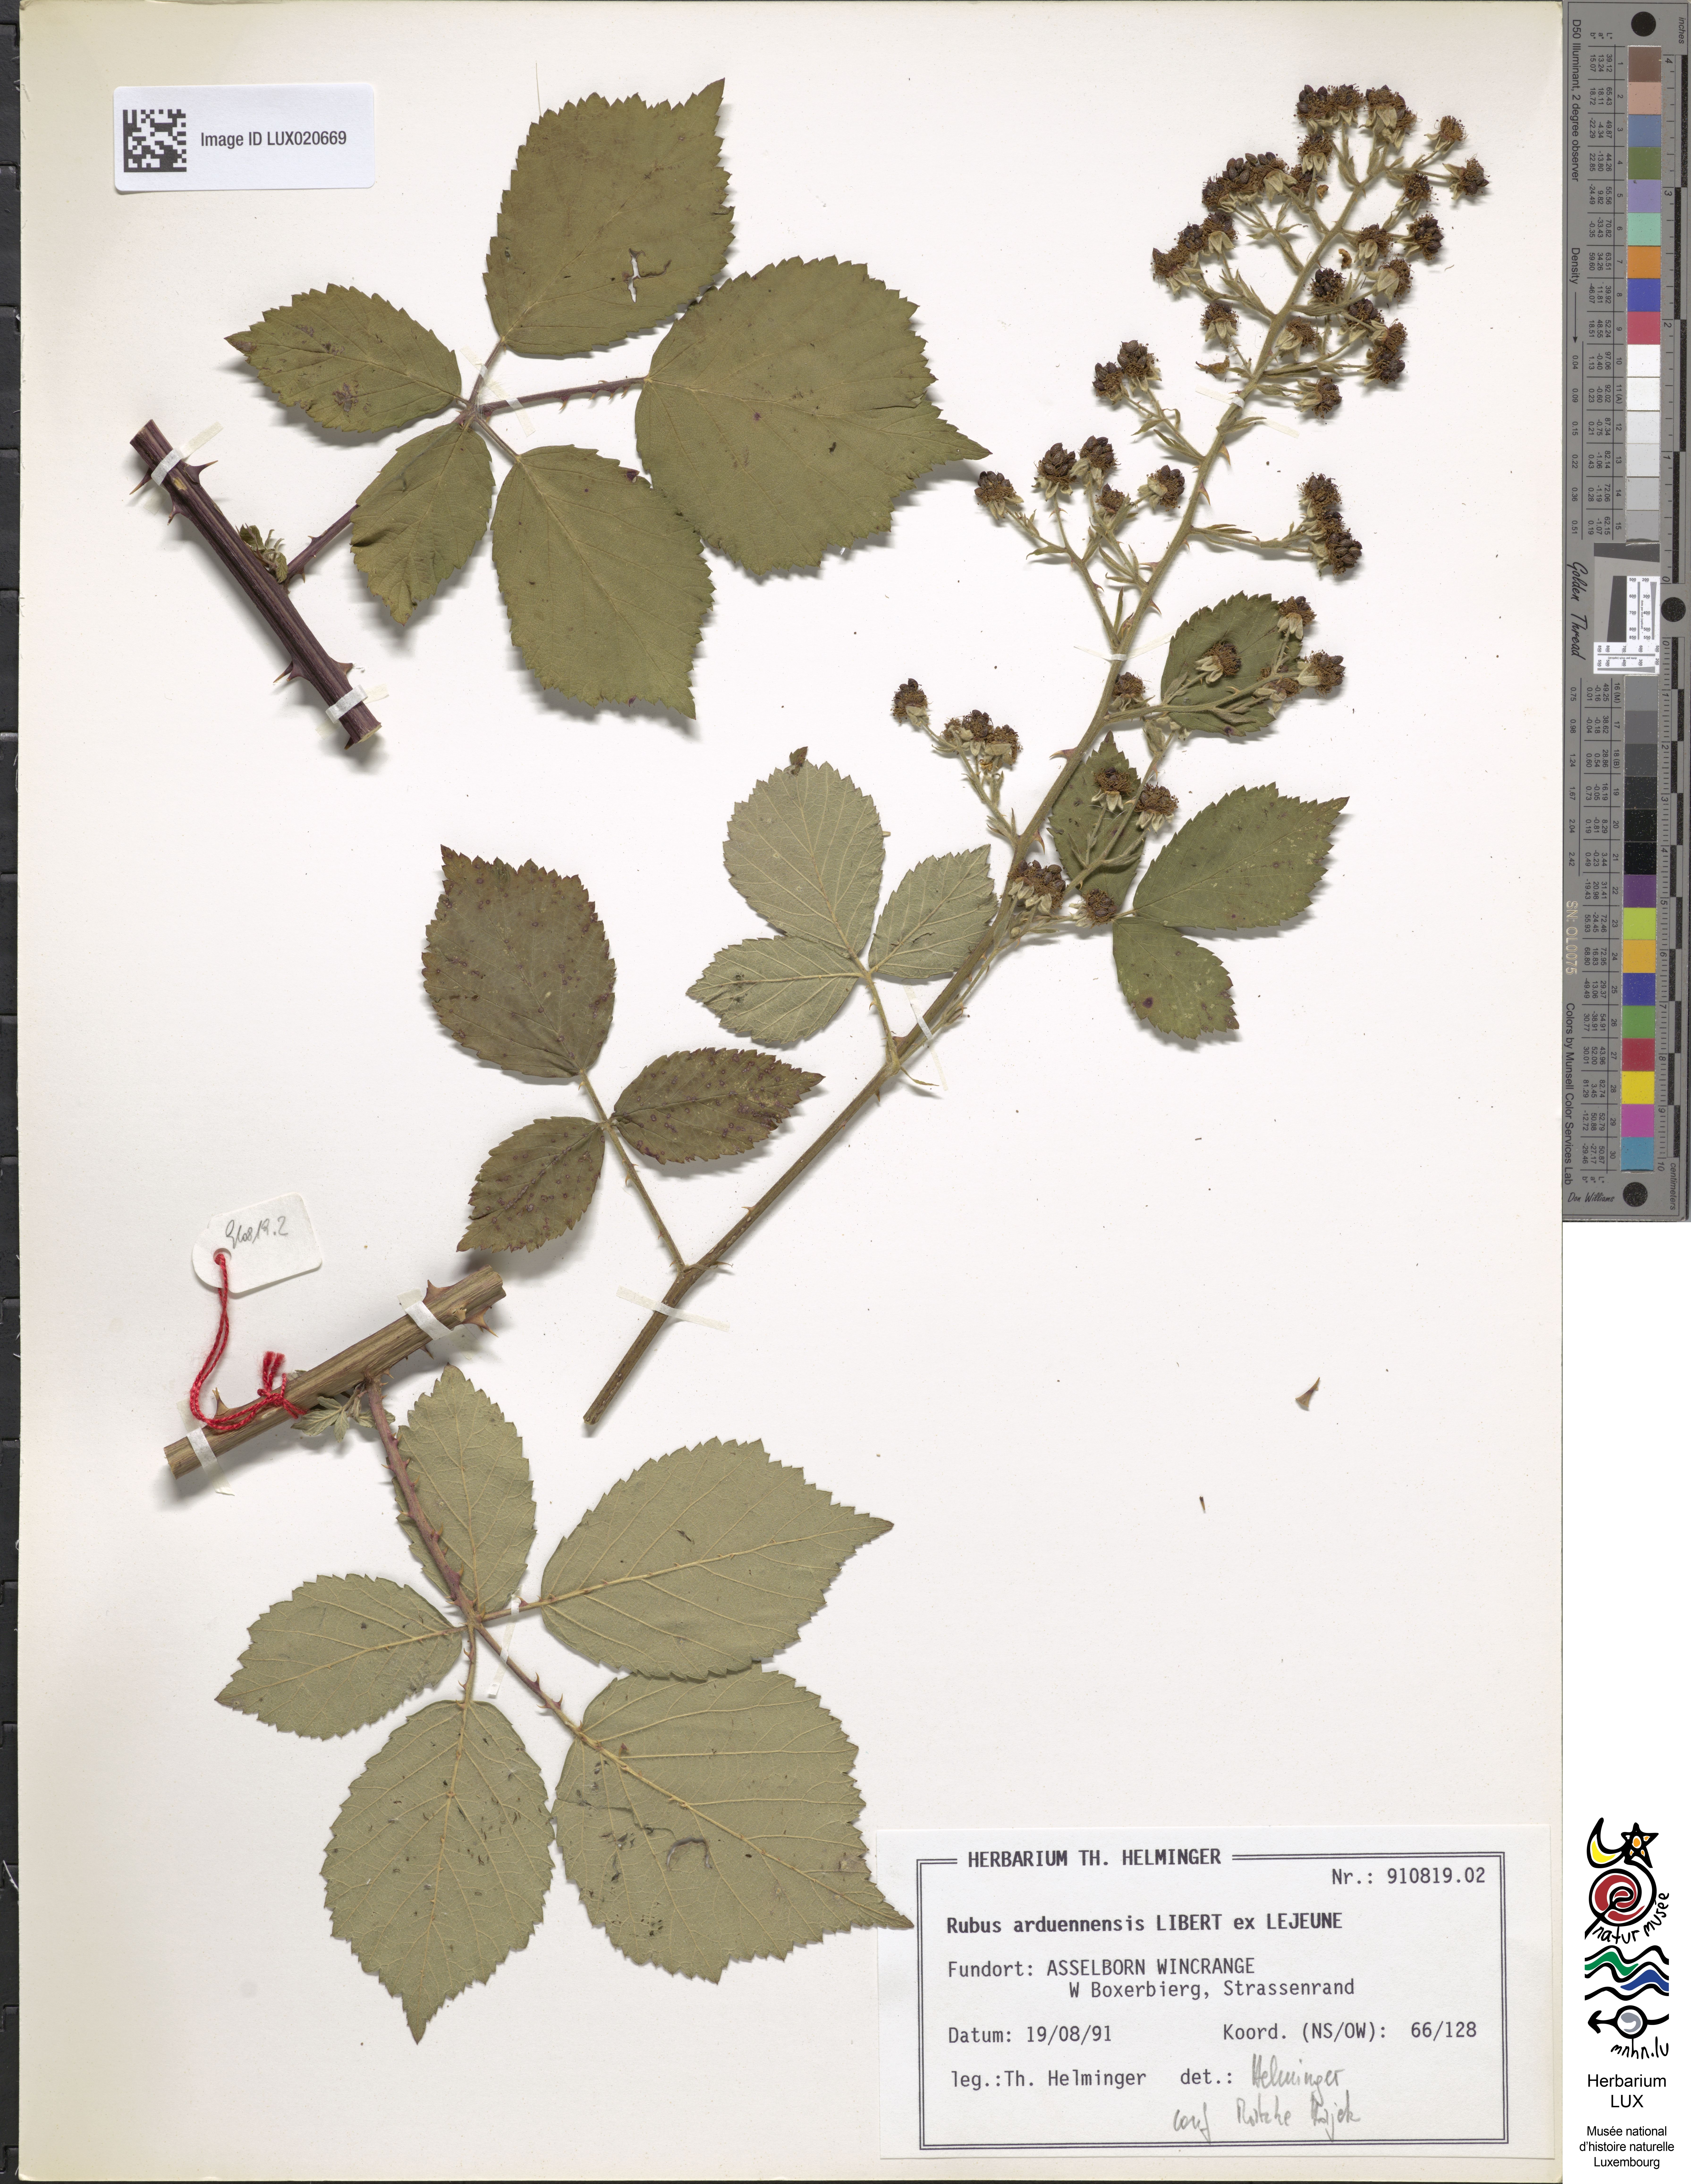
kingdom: Plantae
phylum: Tracheophyta
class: Magnoliopsida
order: Rosales
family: Rosaceae
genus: Rubus
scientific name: Rubus arduennensis
